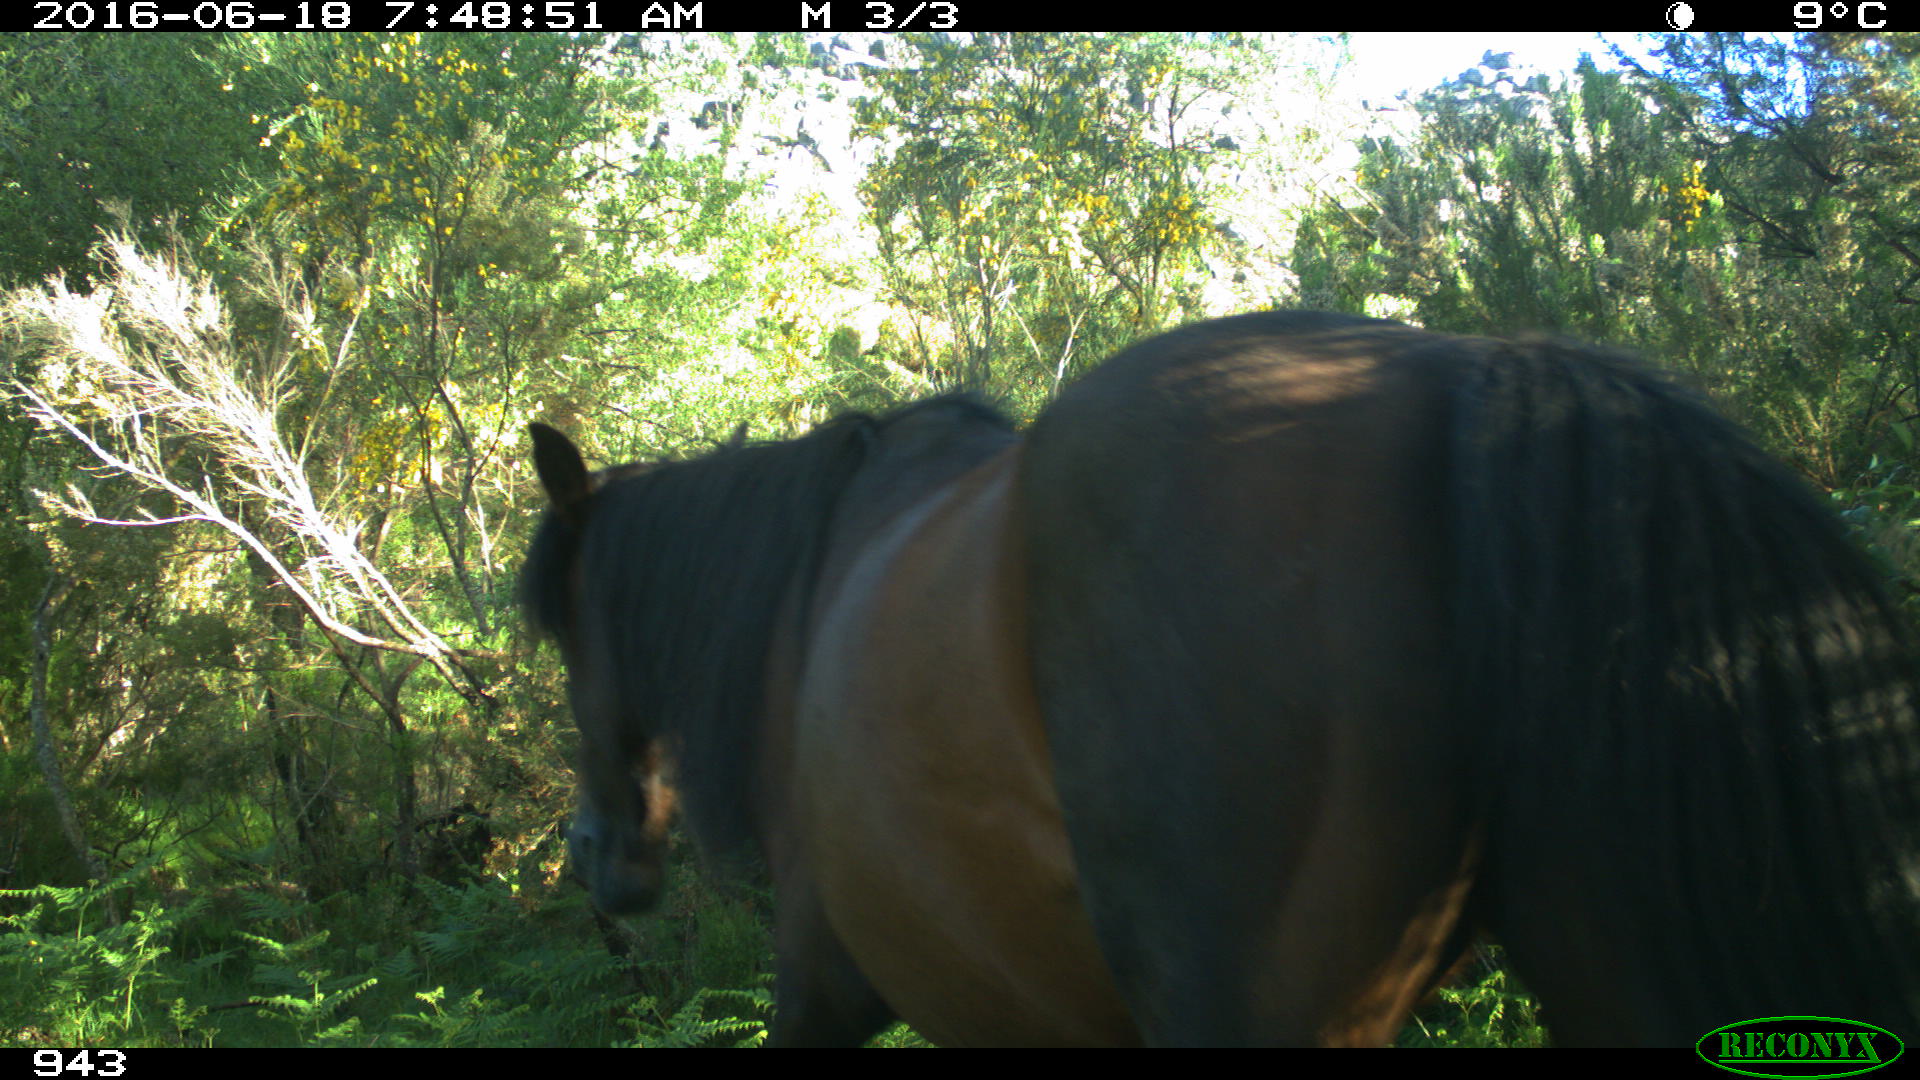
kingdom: Animalia
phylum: Chordata
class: Mammalia
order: Perissodactyla
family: Equidae
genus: Equus
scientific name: Equus caballus
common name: Horse
